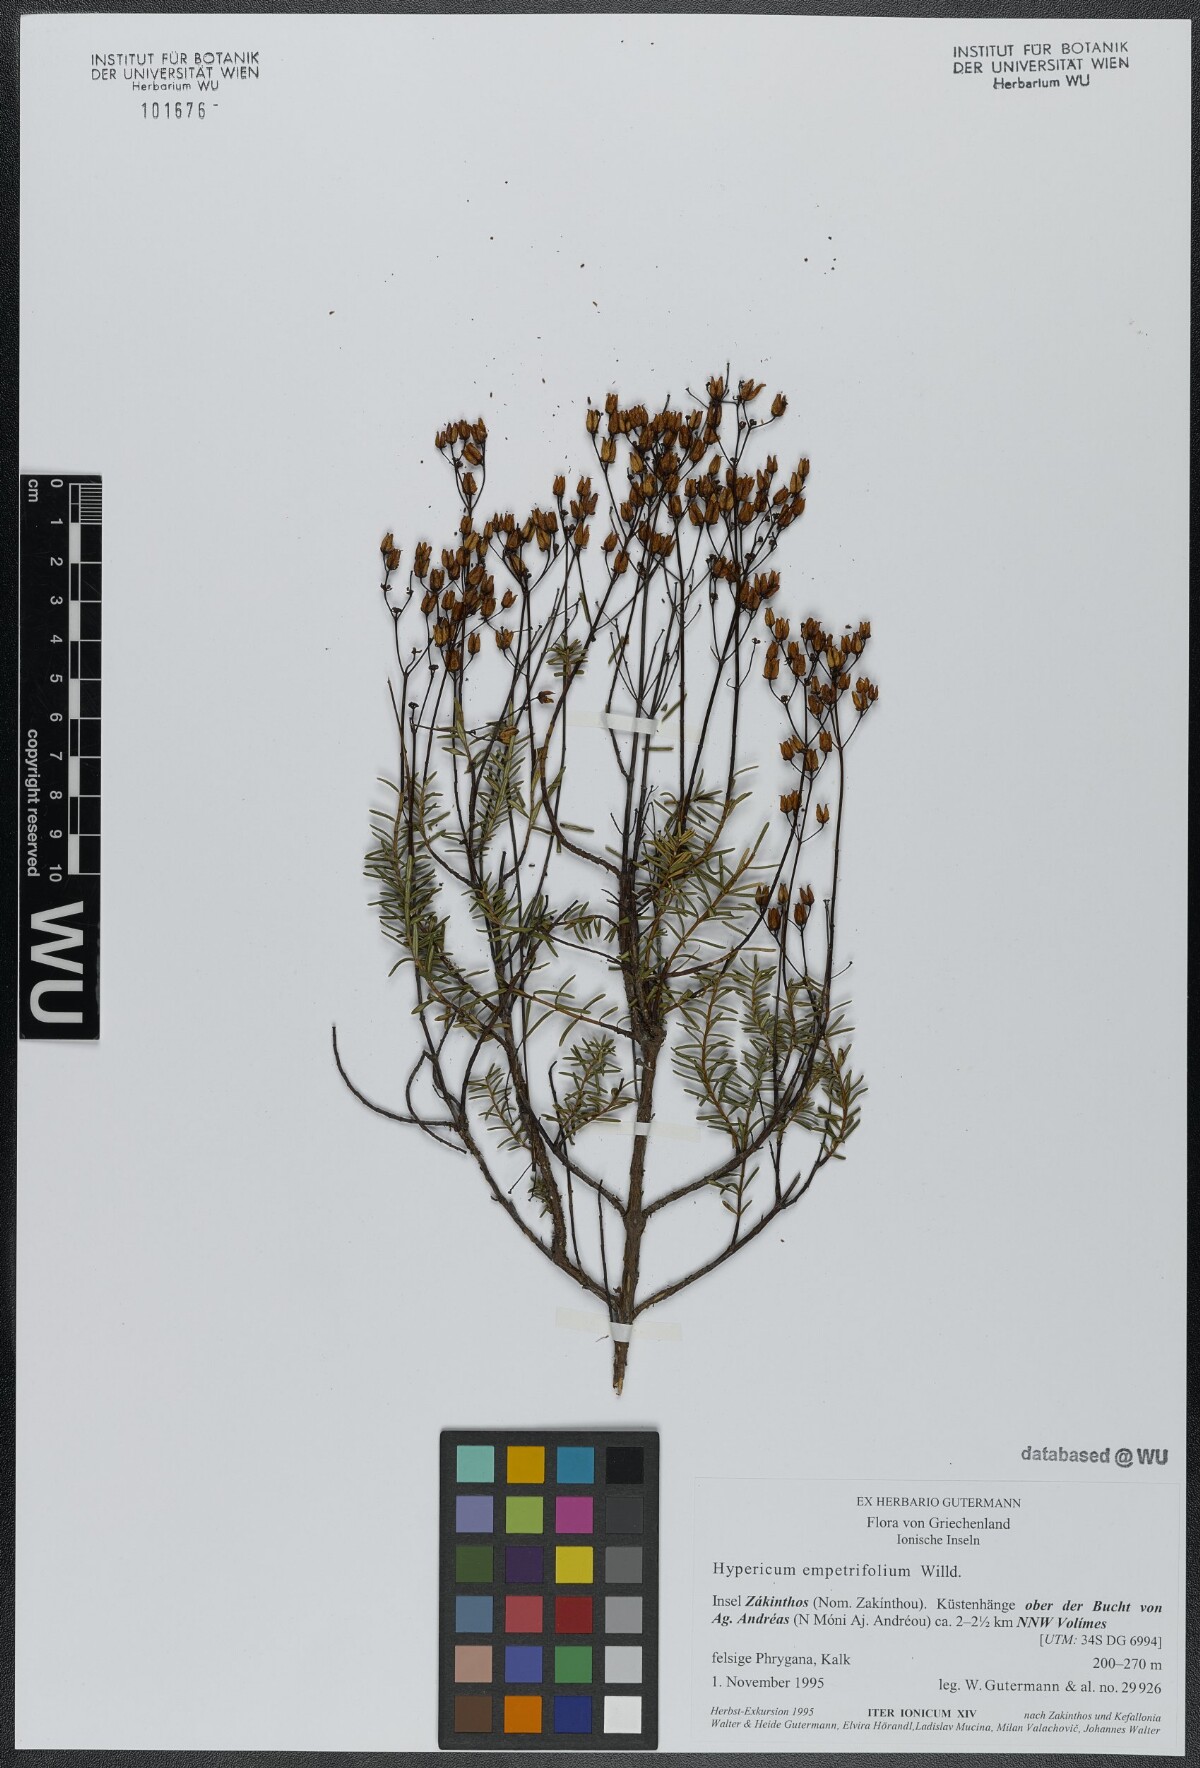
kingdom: Plantae
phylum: Tracheophyta
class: Magnoliopsida
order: Malpighiales
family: Hypericaceae
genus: Hypericum
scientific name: Hypericum empetrifolium
